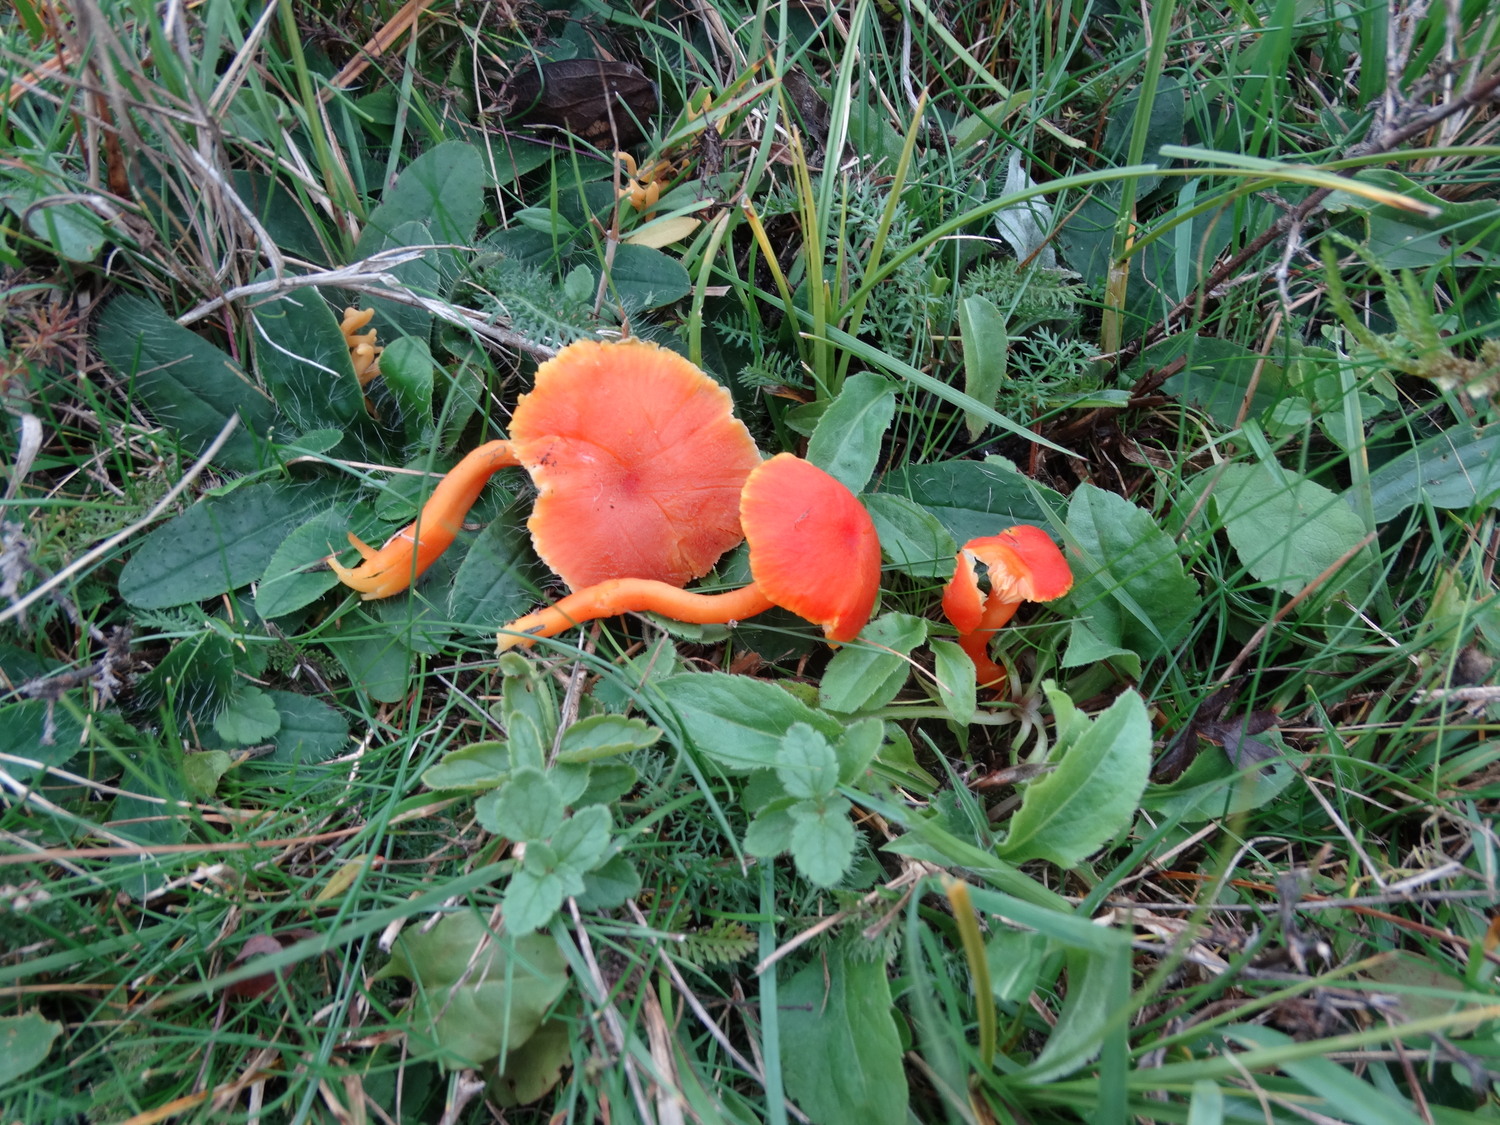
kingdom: Fungi
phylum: Basidiomycota
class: Agaricomycetes
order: Agaricales
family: Hygrophoraceae
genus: Hygrocybe
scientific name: Hygrocybe mucronella
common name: bitter vokshat
